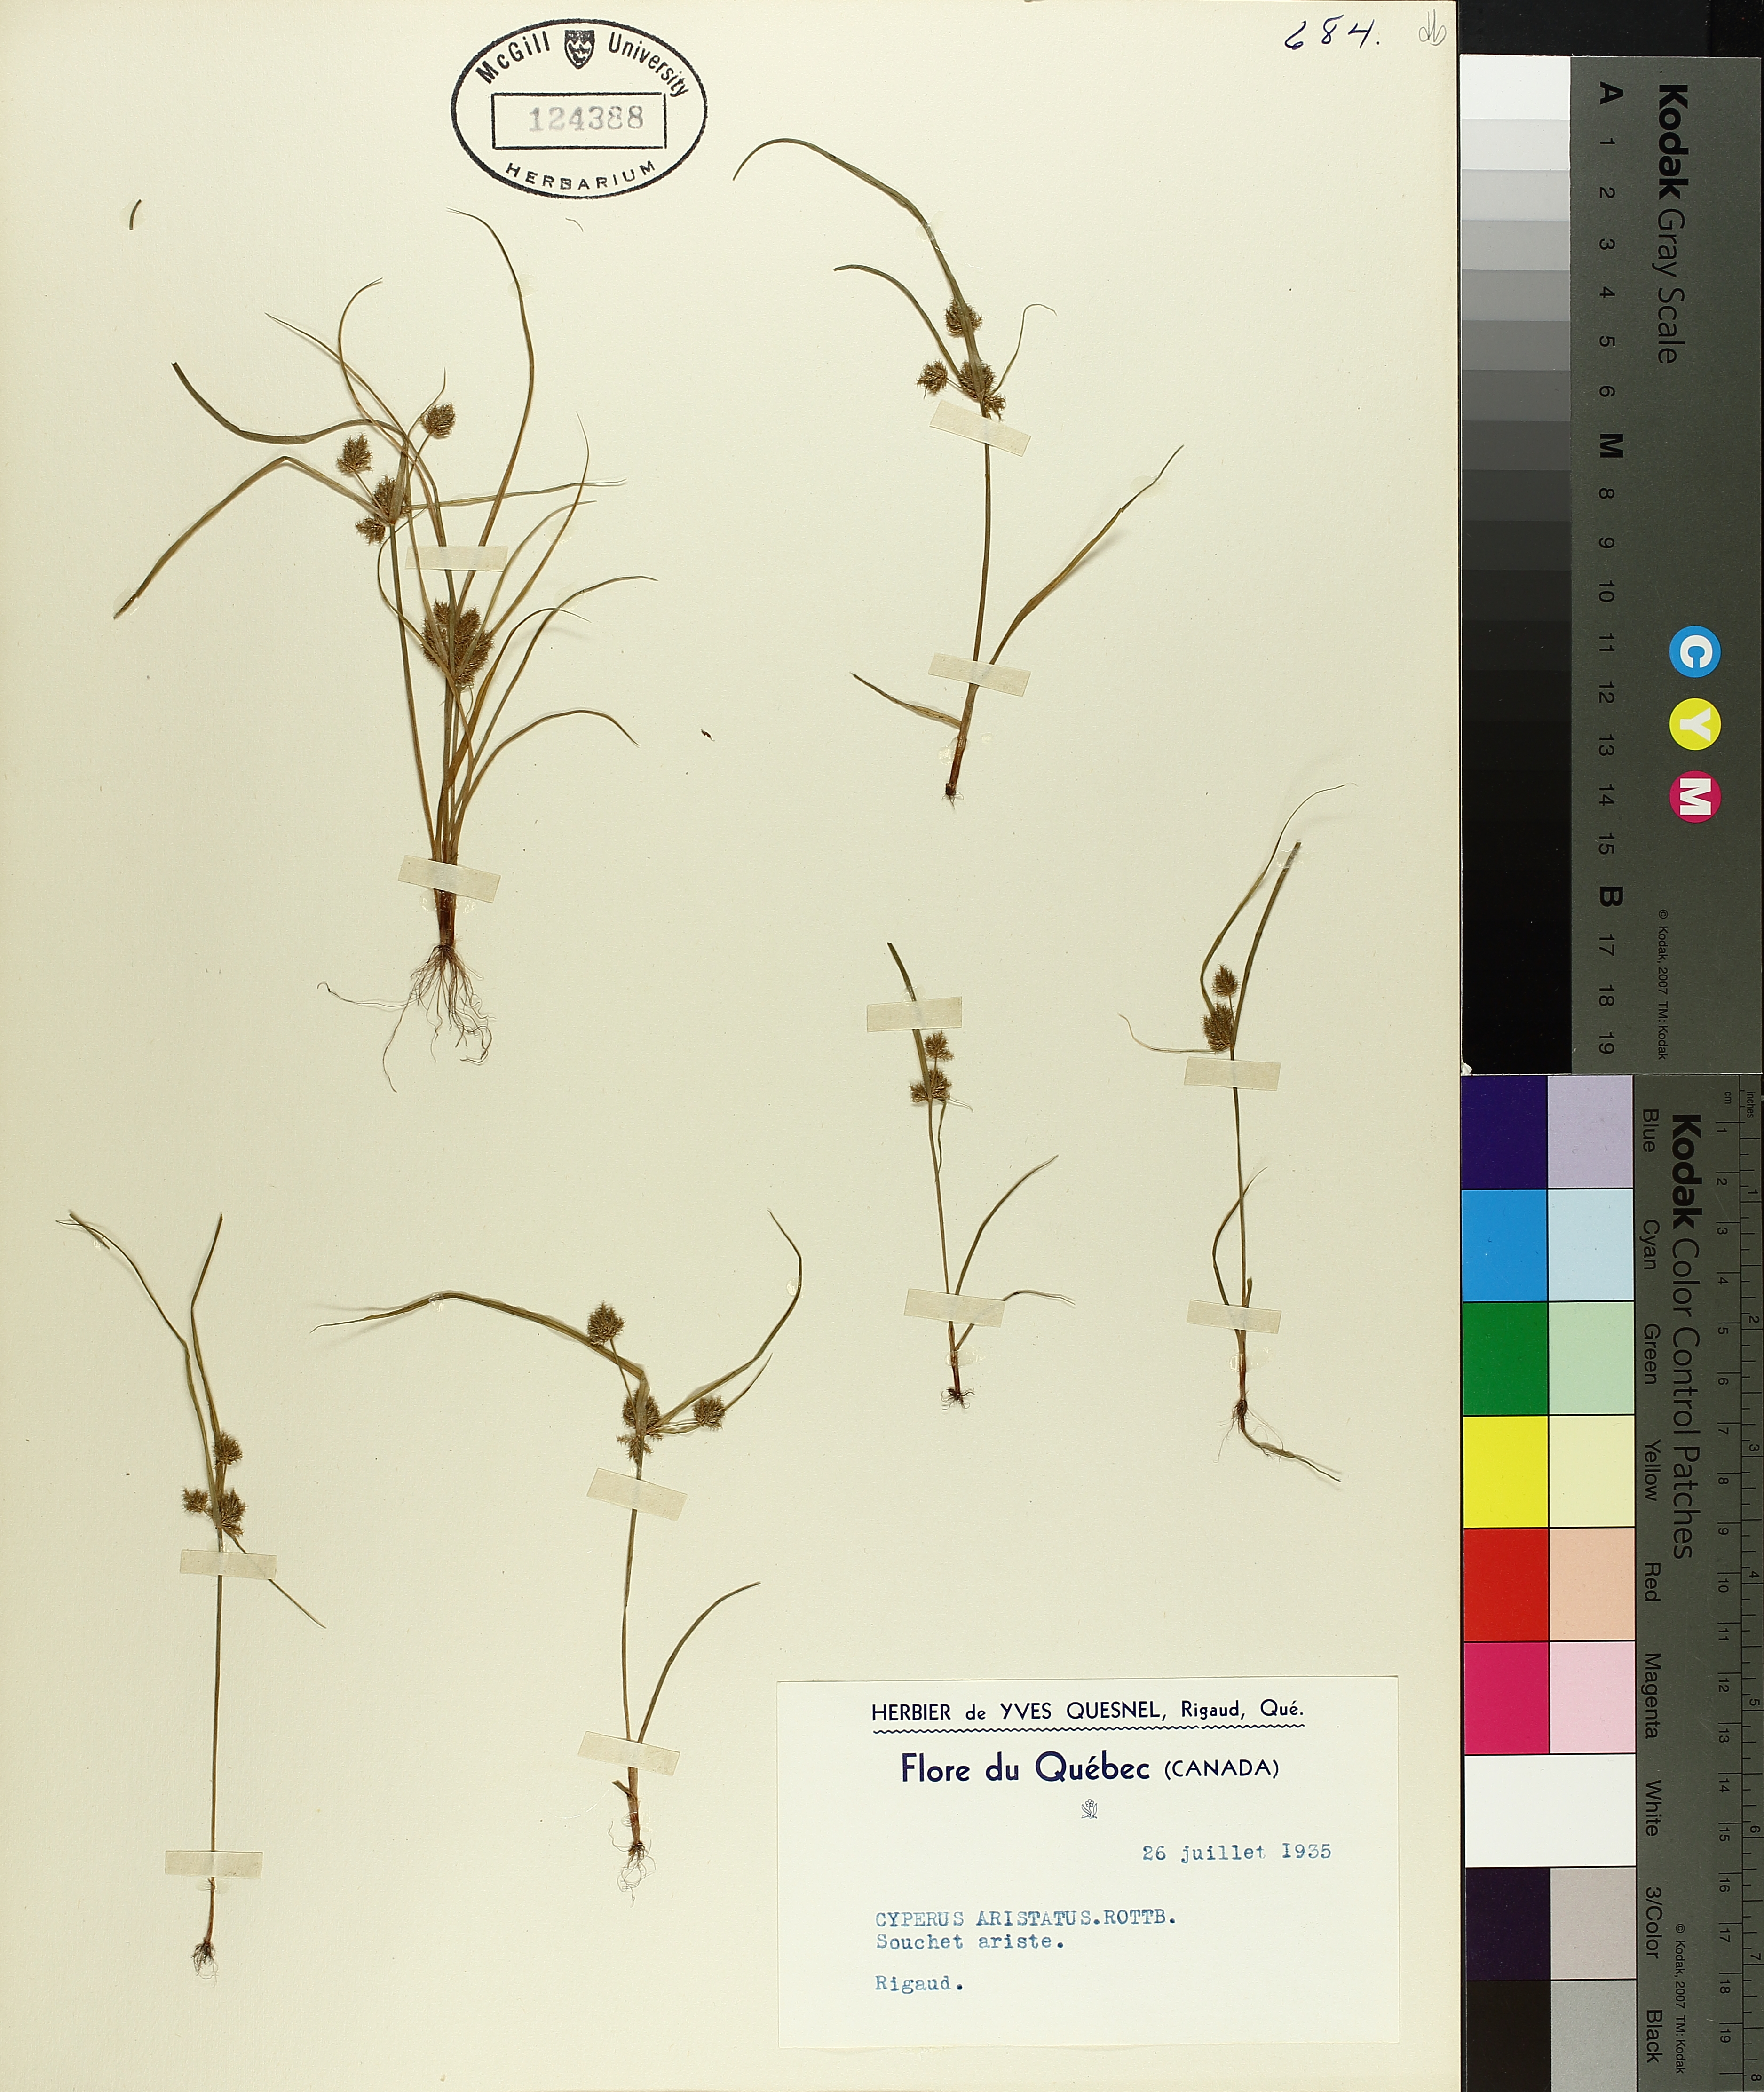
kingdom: Plantae
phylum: Tracheophyta
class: Liliopsida
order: Poales
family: Cyperaceae
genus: Cyperus
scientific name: Cyperus squarrosus
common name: Awned cyperus
